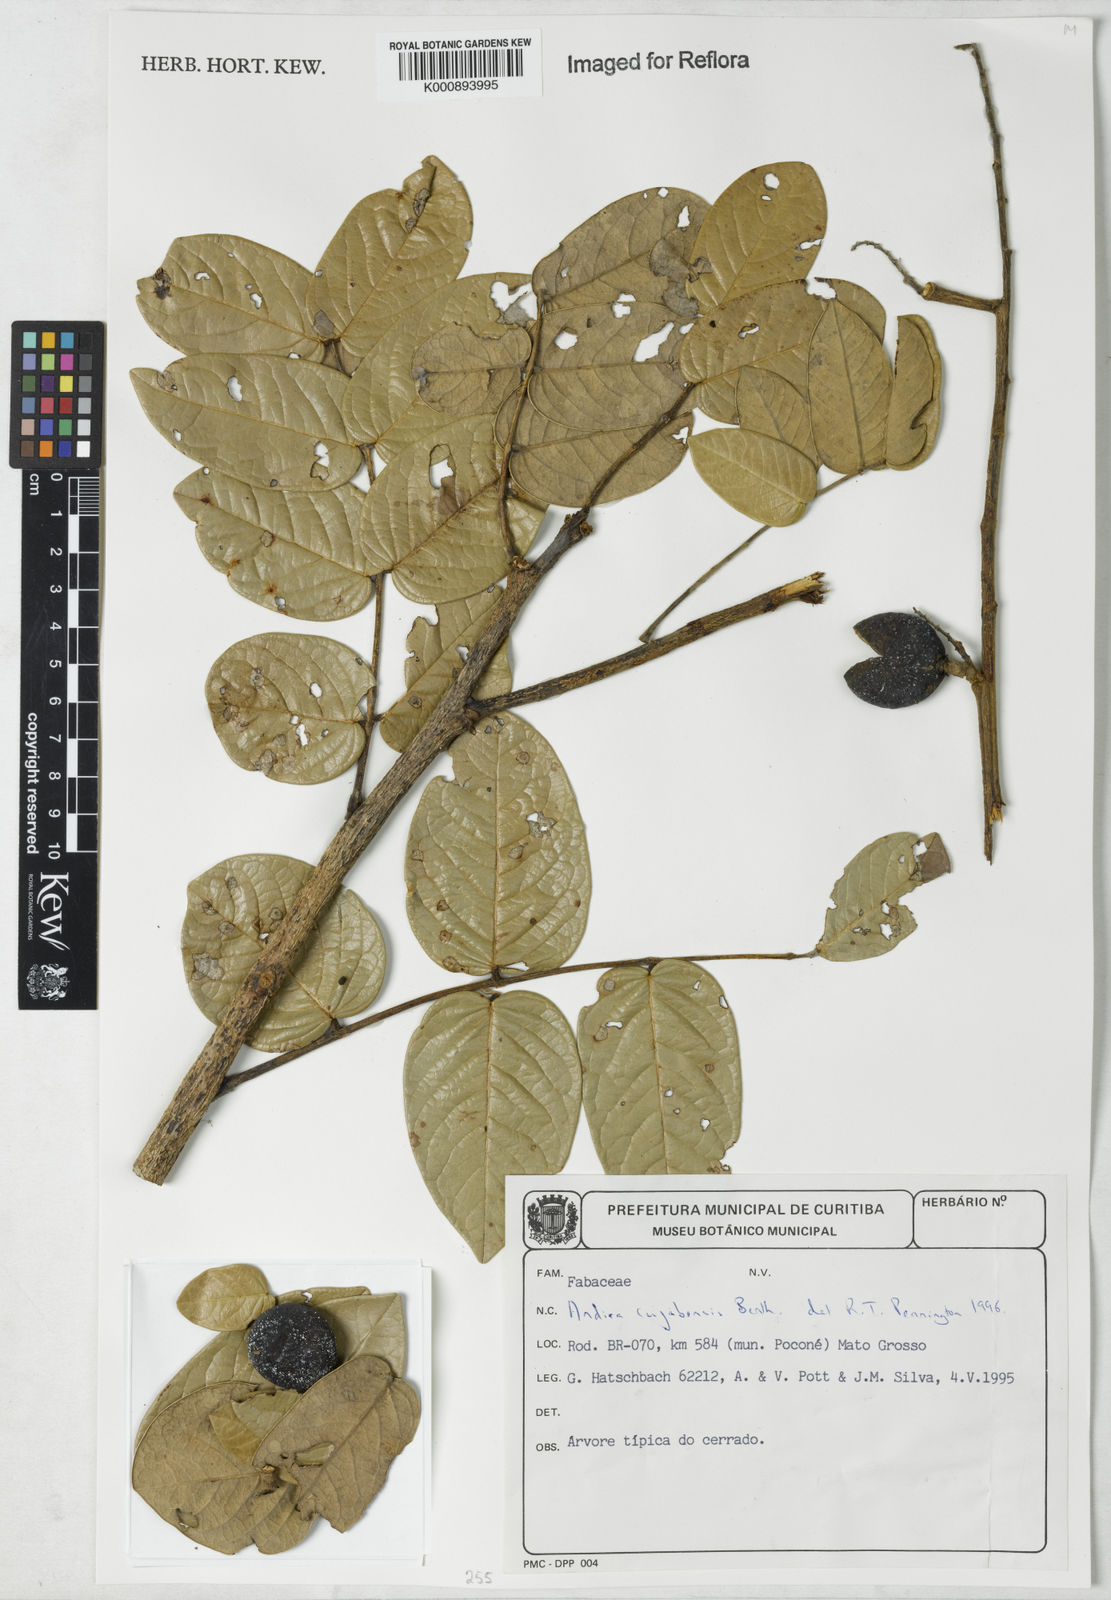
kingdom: Plantae
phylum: Tracheophyta
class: Magnoliopsida
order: Fabales
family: Fabaceae
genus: Andira
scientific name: Andira cujabensis
